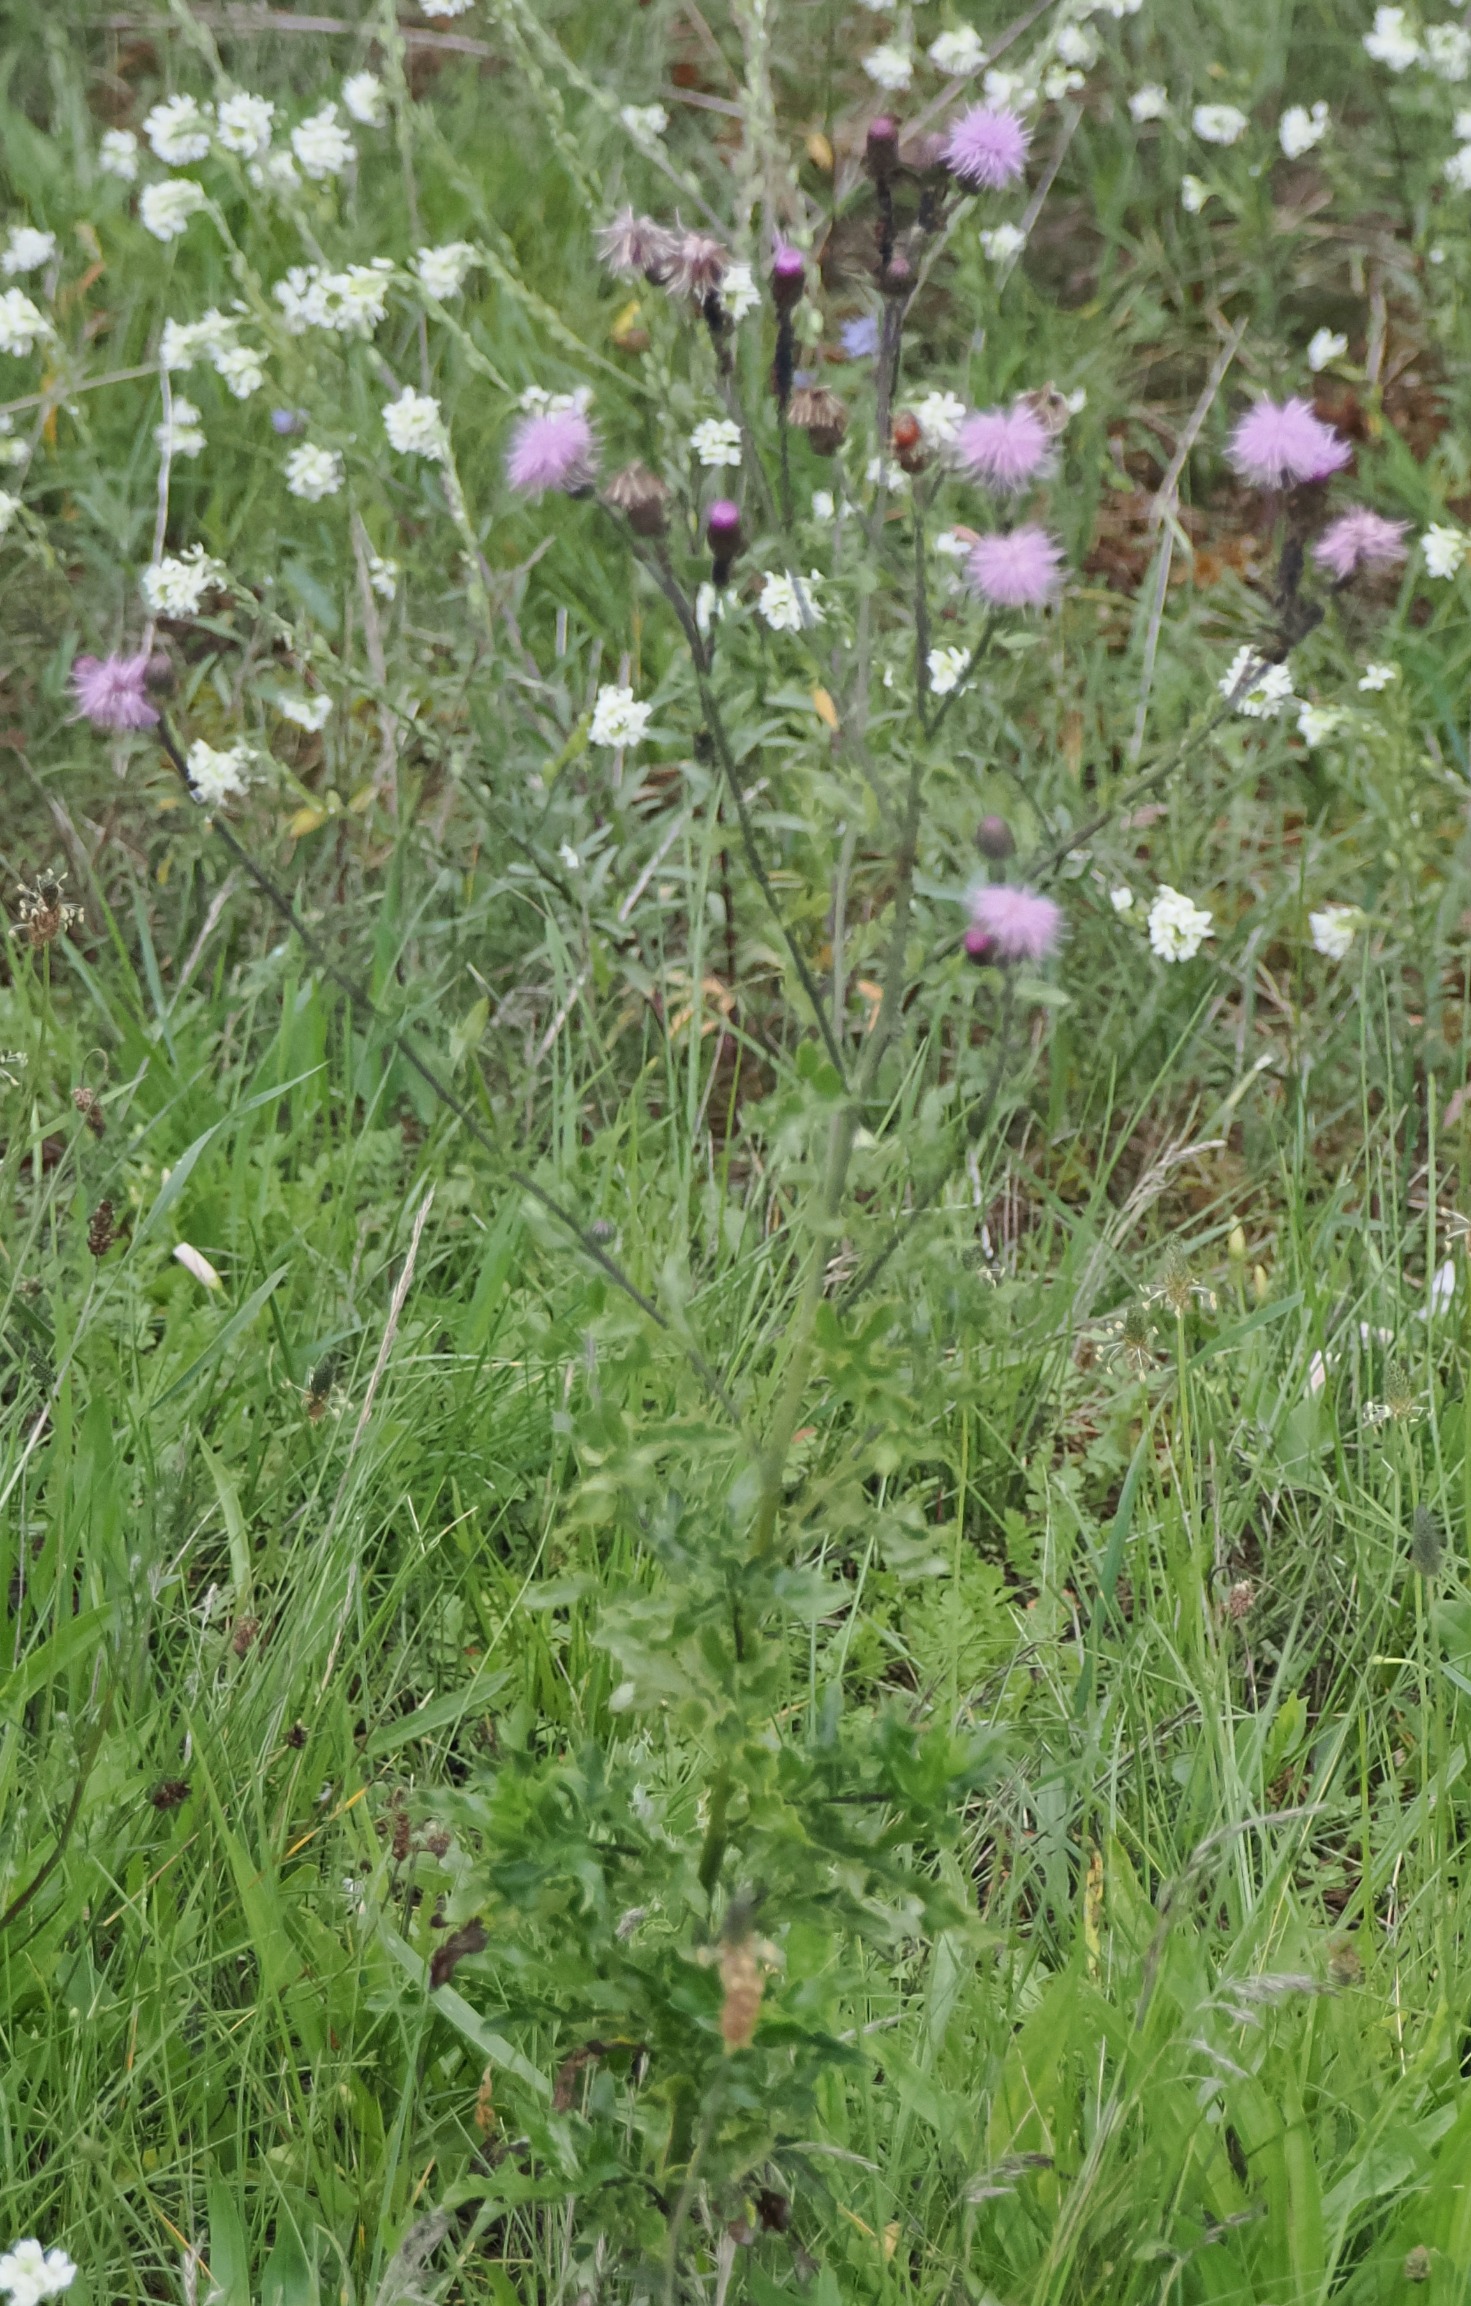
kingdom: Plantae
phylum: Tracheophyta
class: Magnoliopsida
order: Asterales
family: Asteraceae
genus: Cirsium
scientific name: Cirsium arvense
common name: Ager-tidsel
